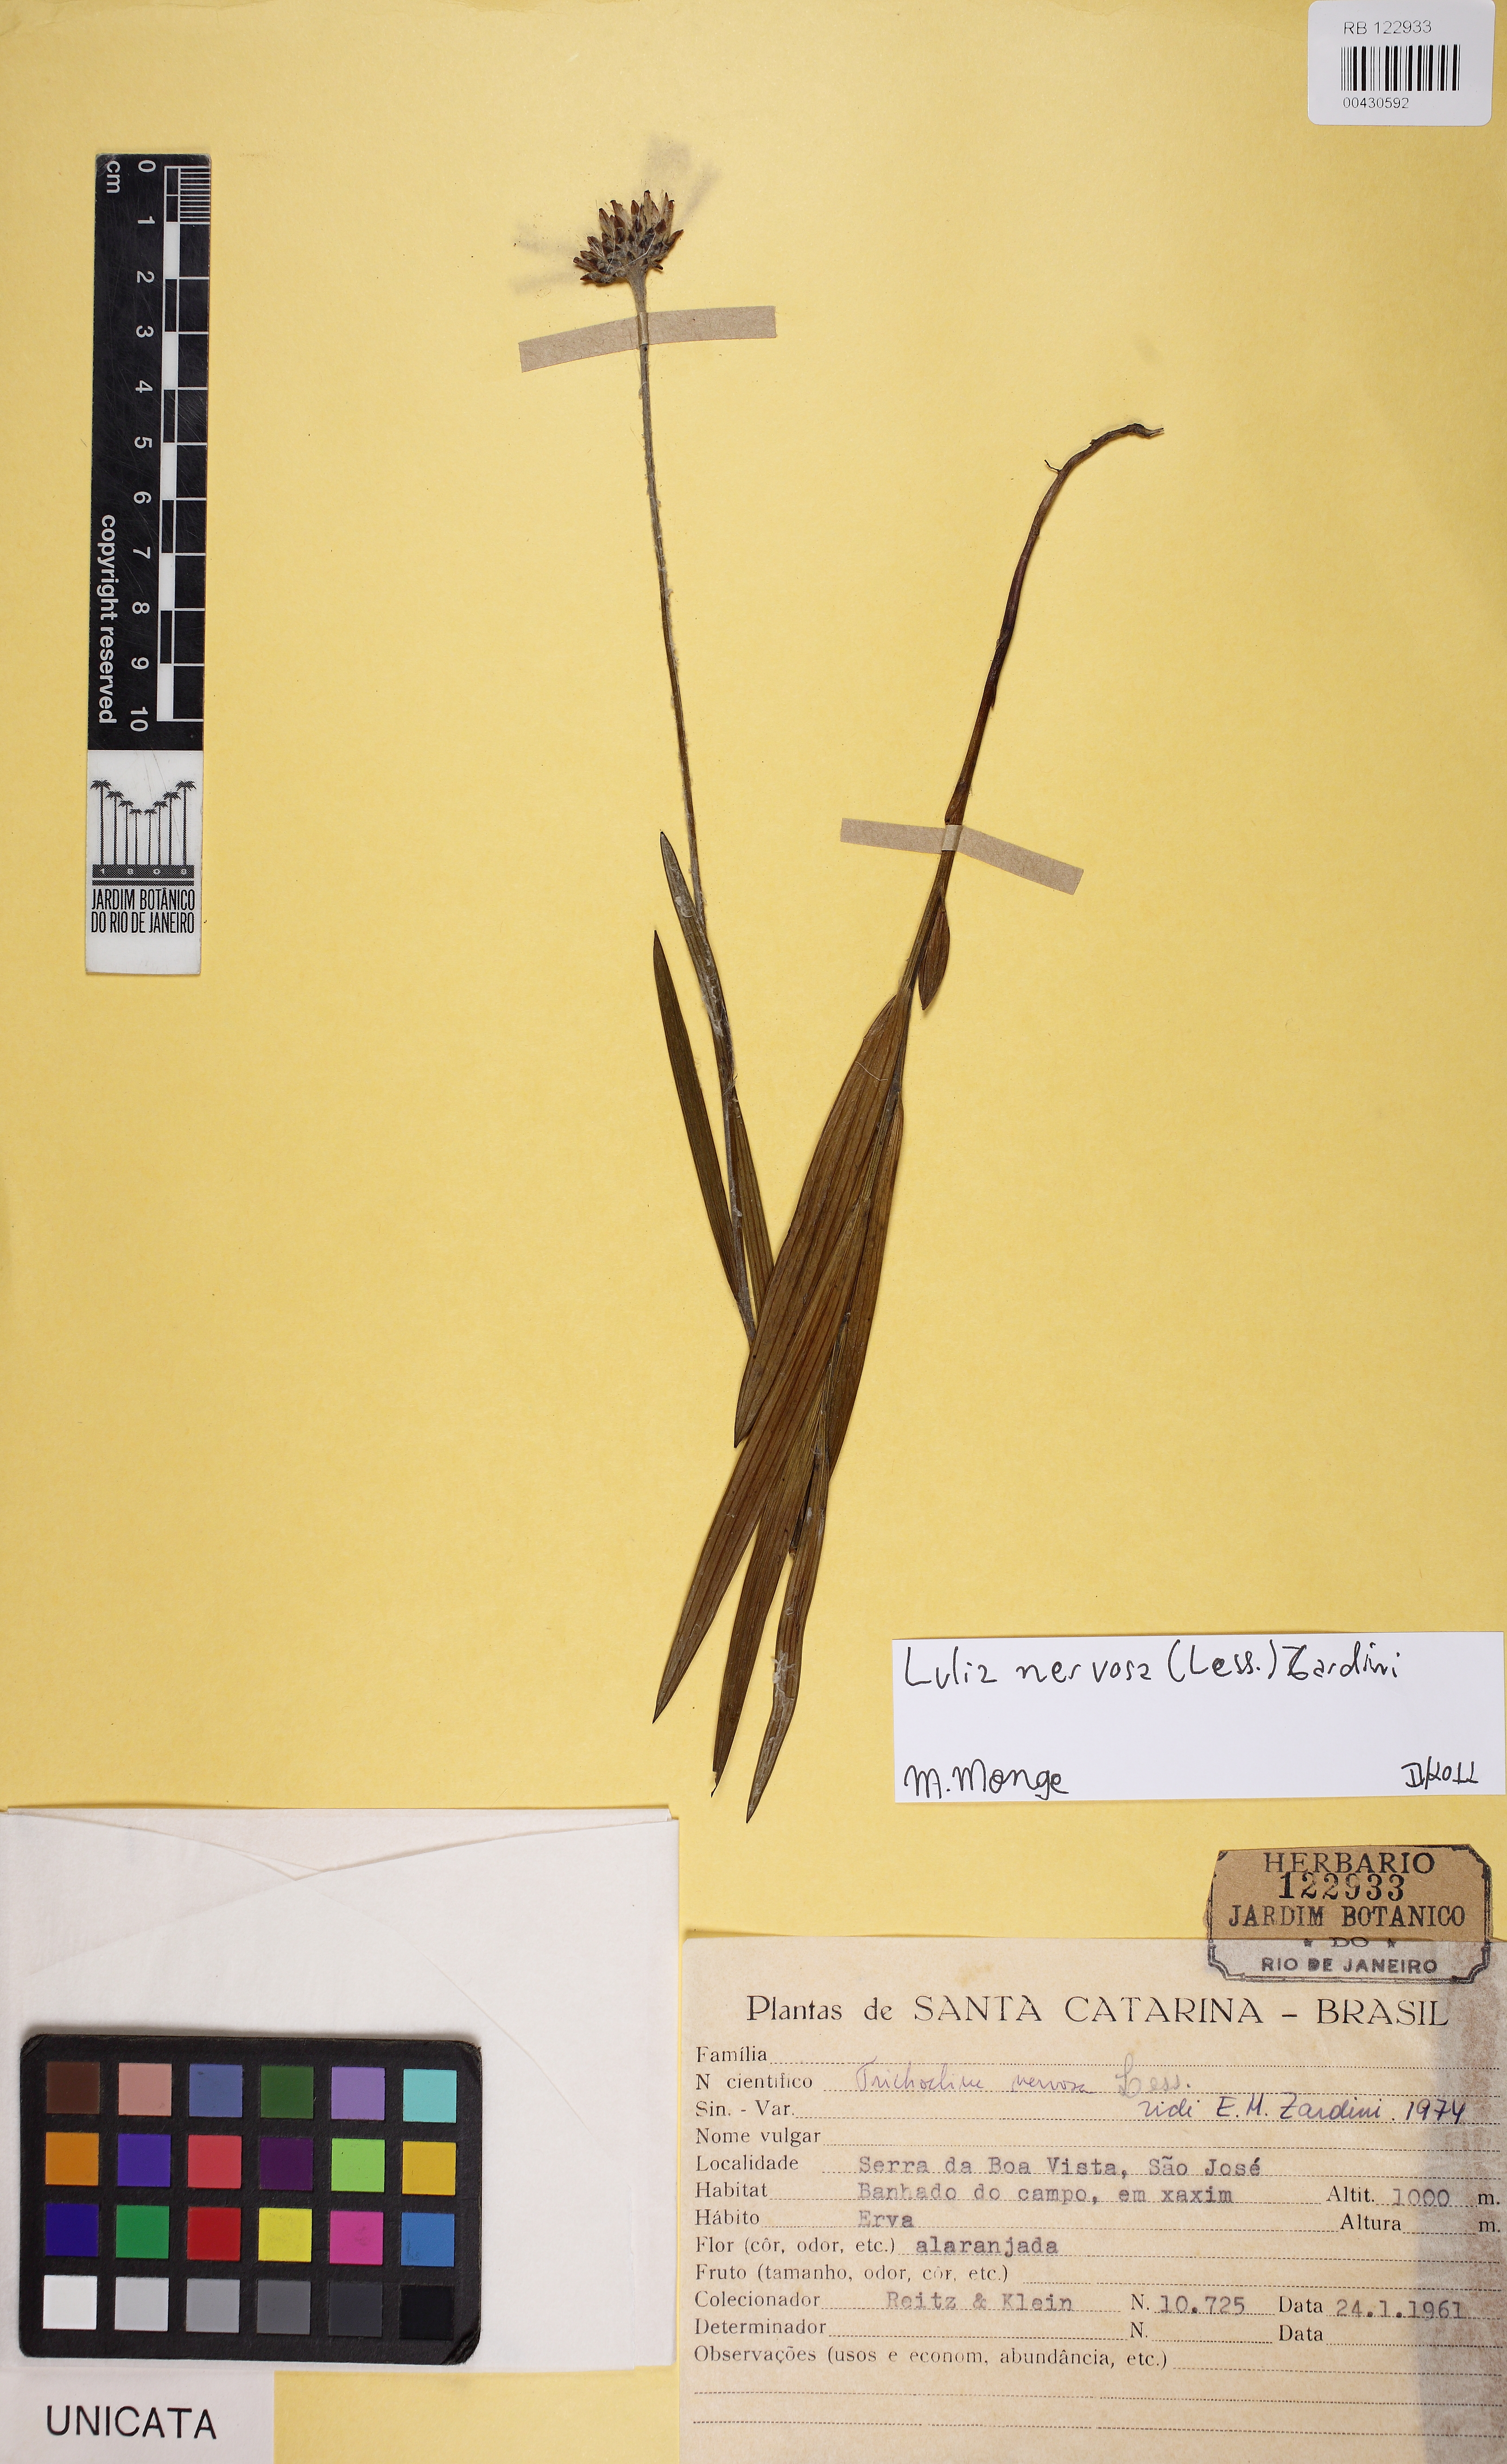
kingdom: Plantae
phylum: Tracheophyta
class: Magnoliopsida
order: Asterales
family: Asteraceae
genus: Lulia
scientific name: Lulia nervosa
